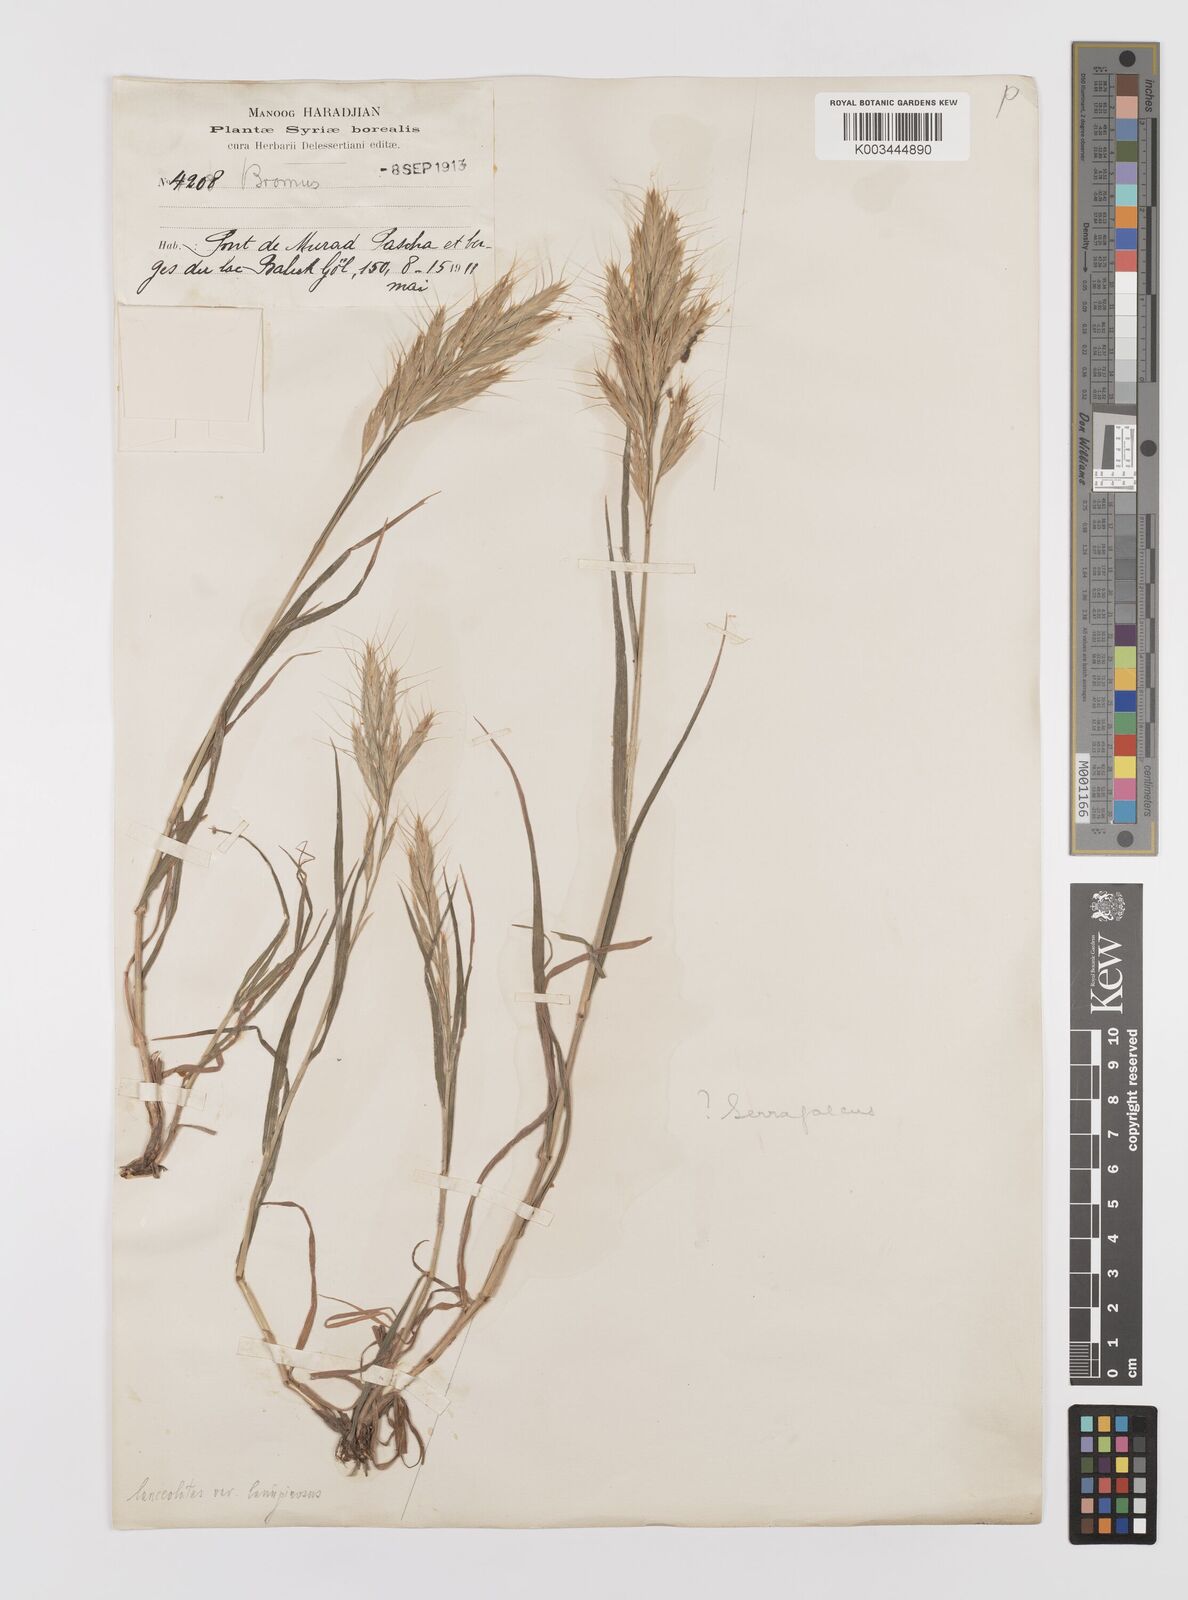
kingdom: Plantae
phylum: Tracheophyta
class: Liliopsida
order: Poales
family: Poaceae
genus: Bromus
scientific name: Bromus lanceolatus
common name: Mediterranean brome
